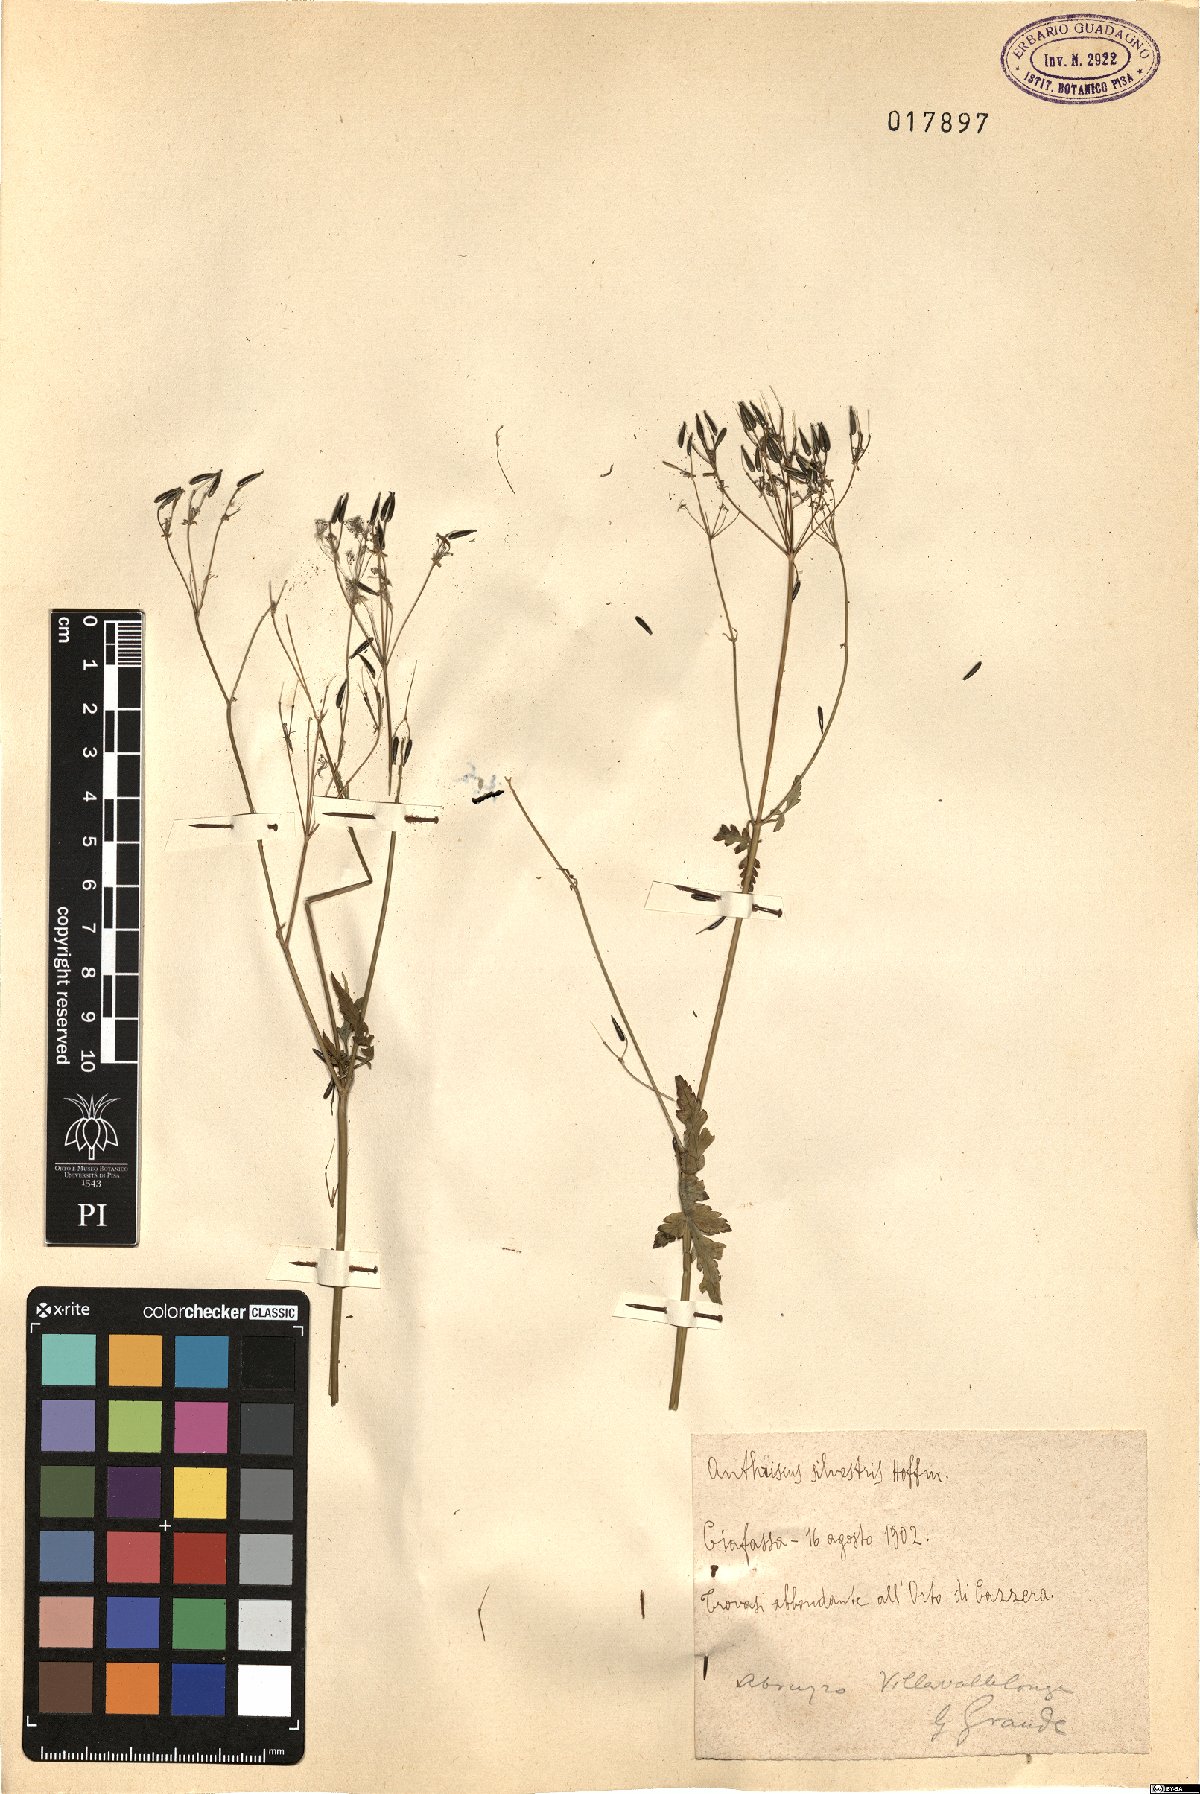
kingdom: Plantae
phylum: Tracheophyta
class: Magnoliopsida
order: Apiales
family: Apiaceae
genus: Anthriscus
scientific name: Anthriscus sylvestris
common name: Cow parsley
